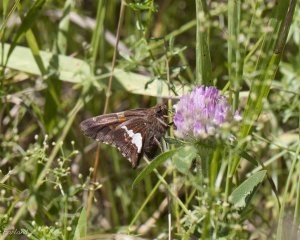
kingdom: Animalia
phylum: Arthropoda
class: Insecta
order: Lepidoptera
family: Hesperiidae
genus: Epargyreus
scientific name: Epargyreus clarus
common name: Silver-spotted Skipper
